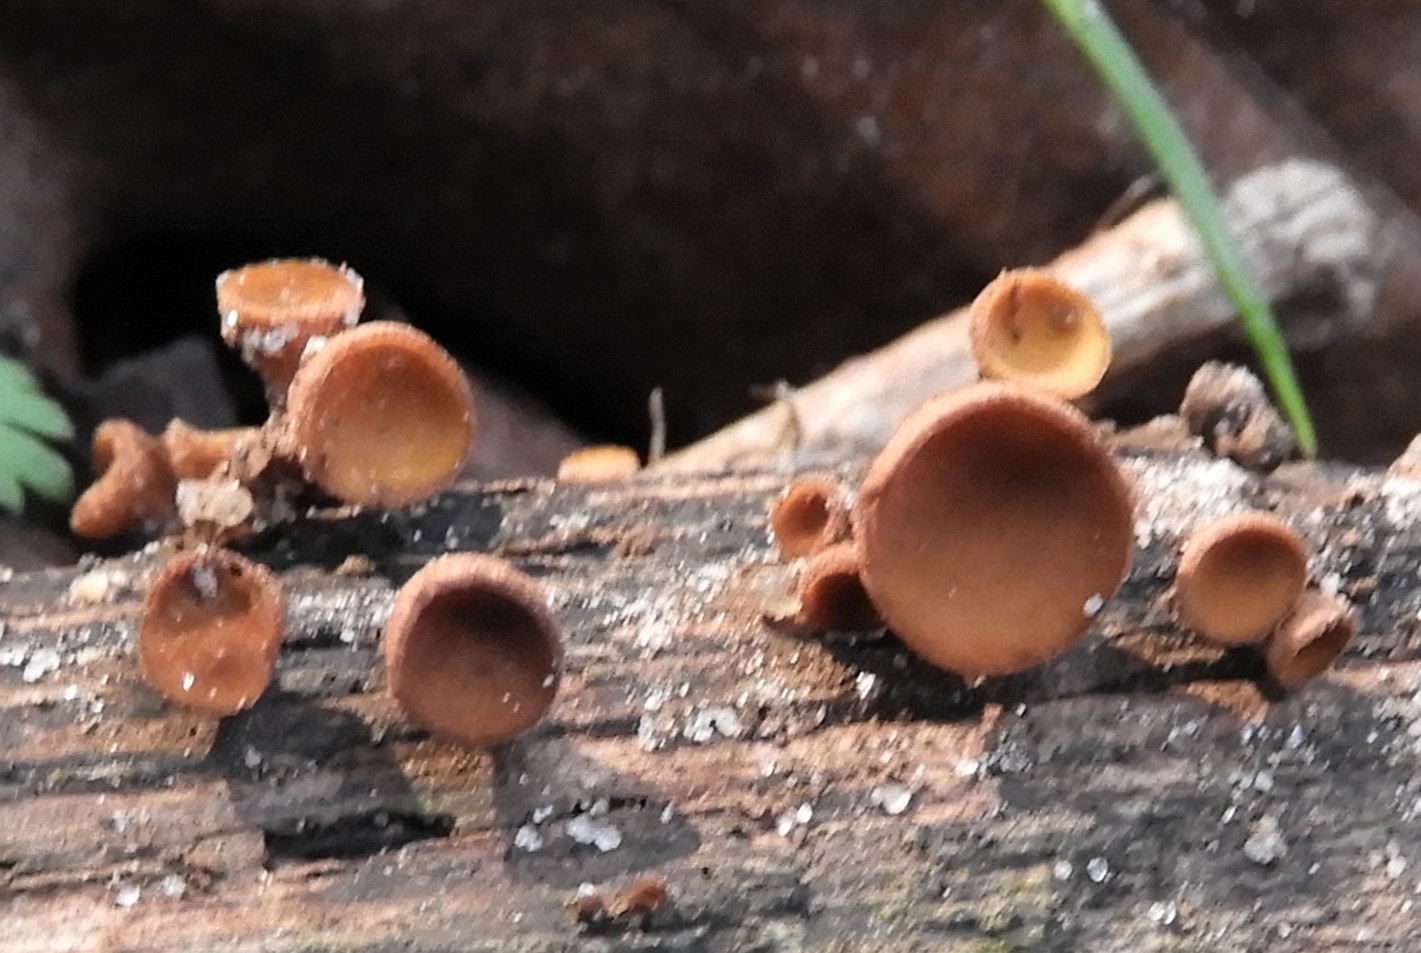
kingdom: Fungi
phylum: Ascomycota
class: Leotiomycetes
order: Helotiales
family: Rutstroemiaceae
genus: Rutstroemia
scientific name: Rutstroemia firma
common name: gren-brunskive
